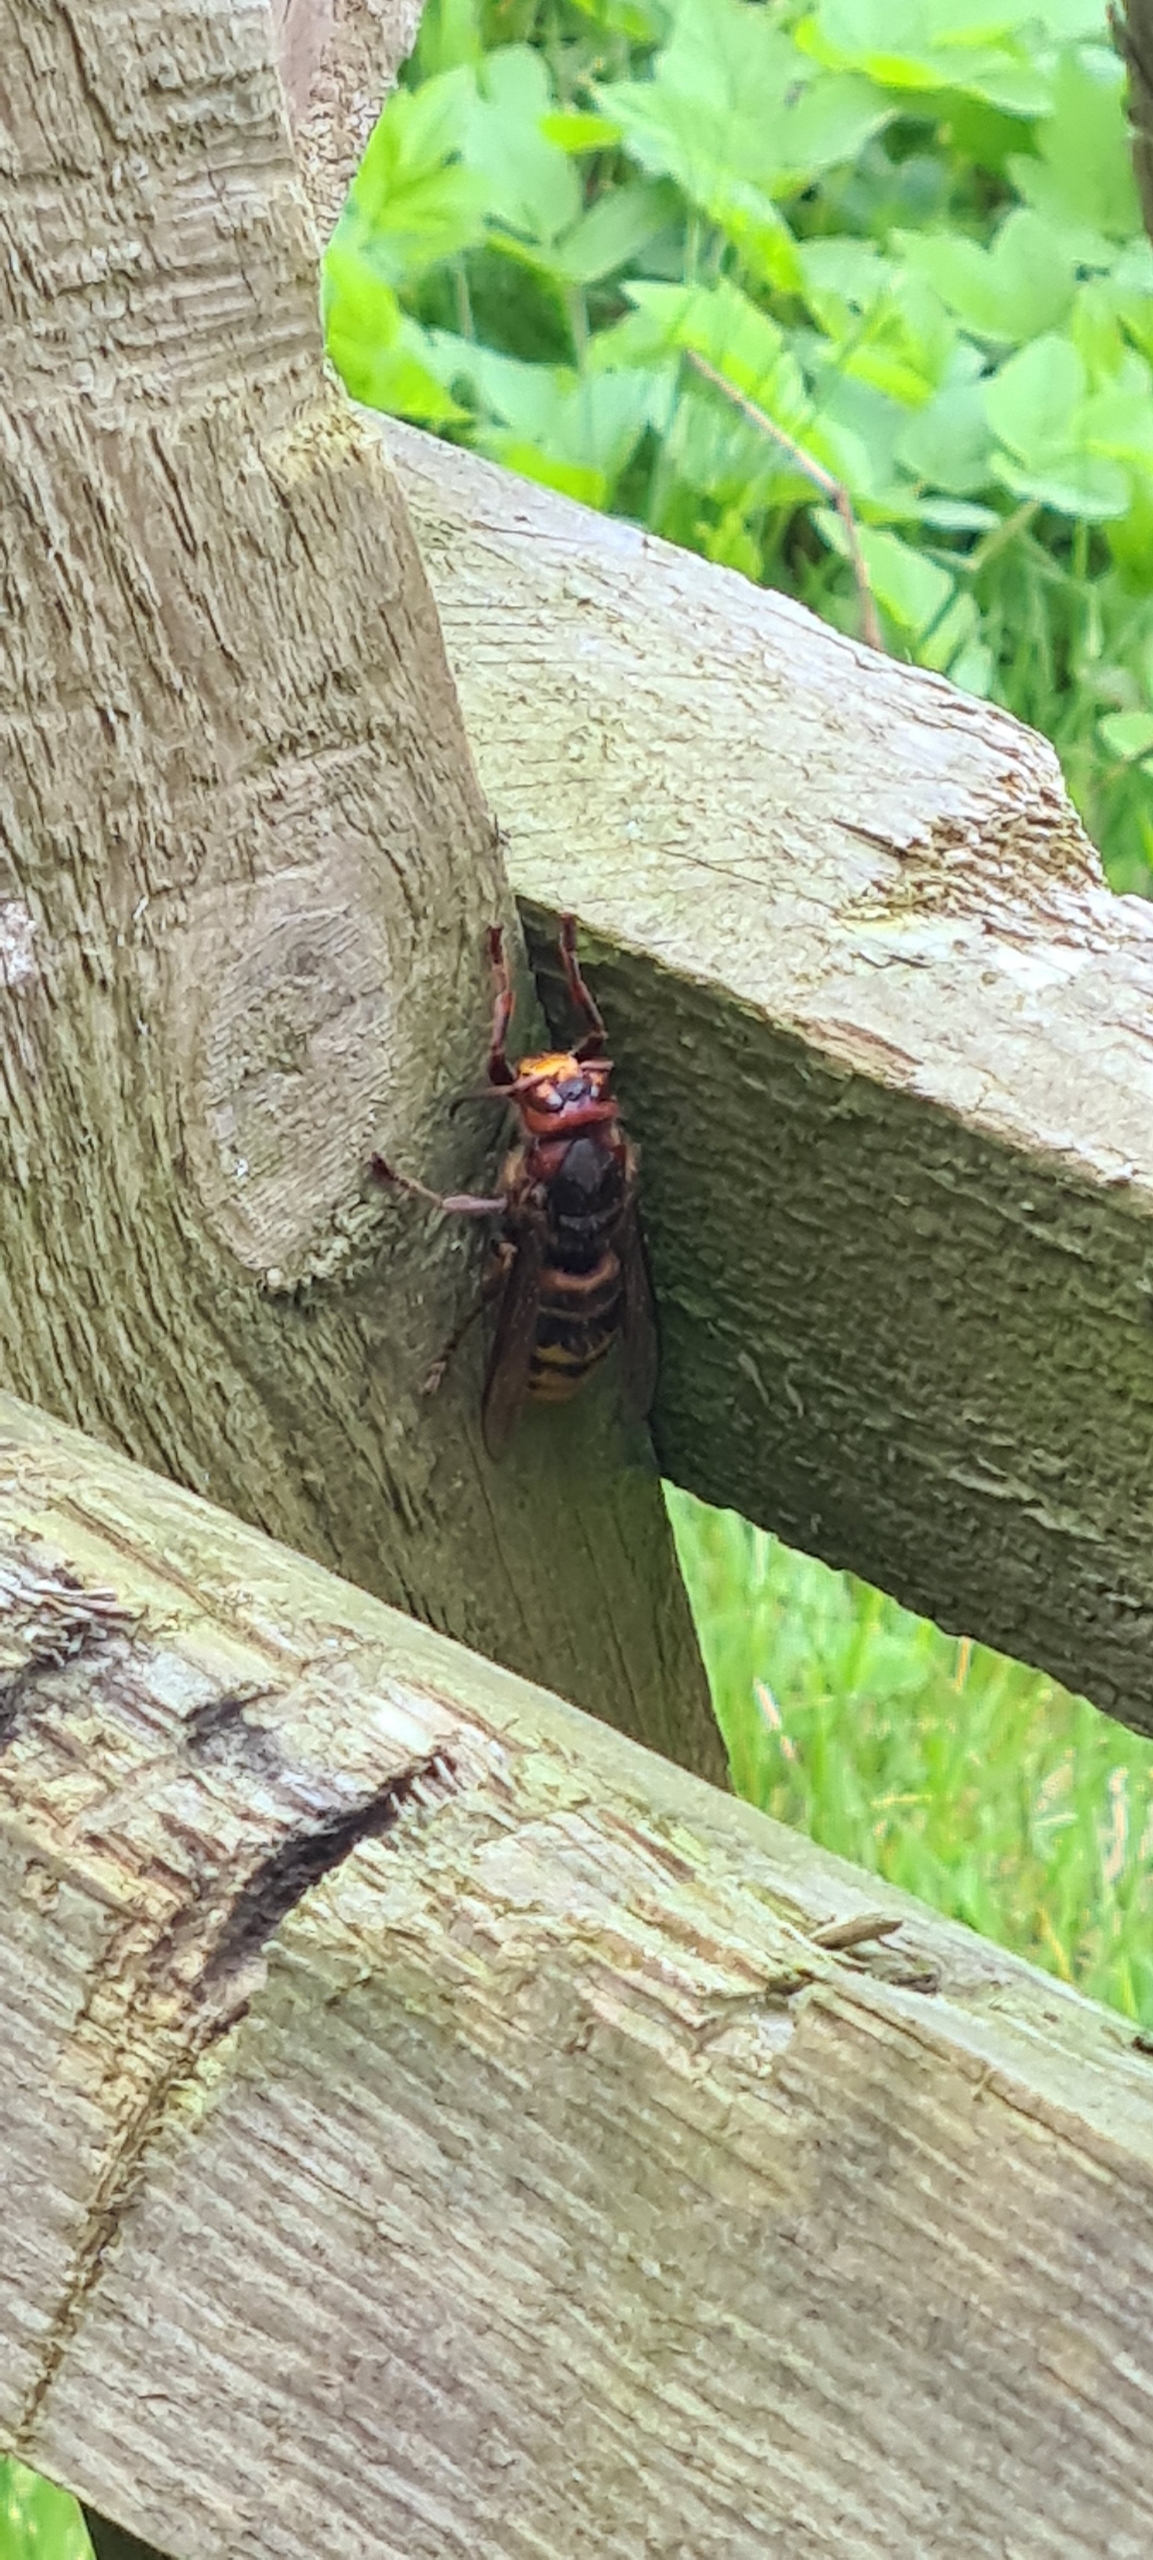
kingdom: Animalia
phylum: Arthropoda
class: Insecta
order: Hymenoptera
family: Vespidae
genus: Vespa
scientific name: Vespa crabro
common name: Stor gedehams
